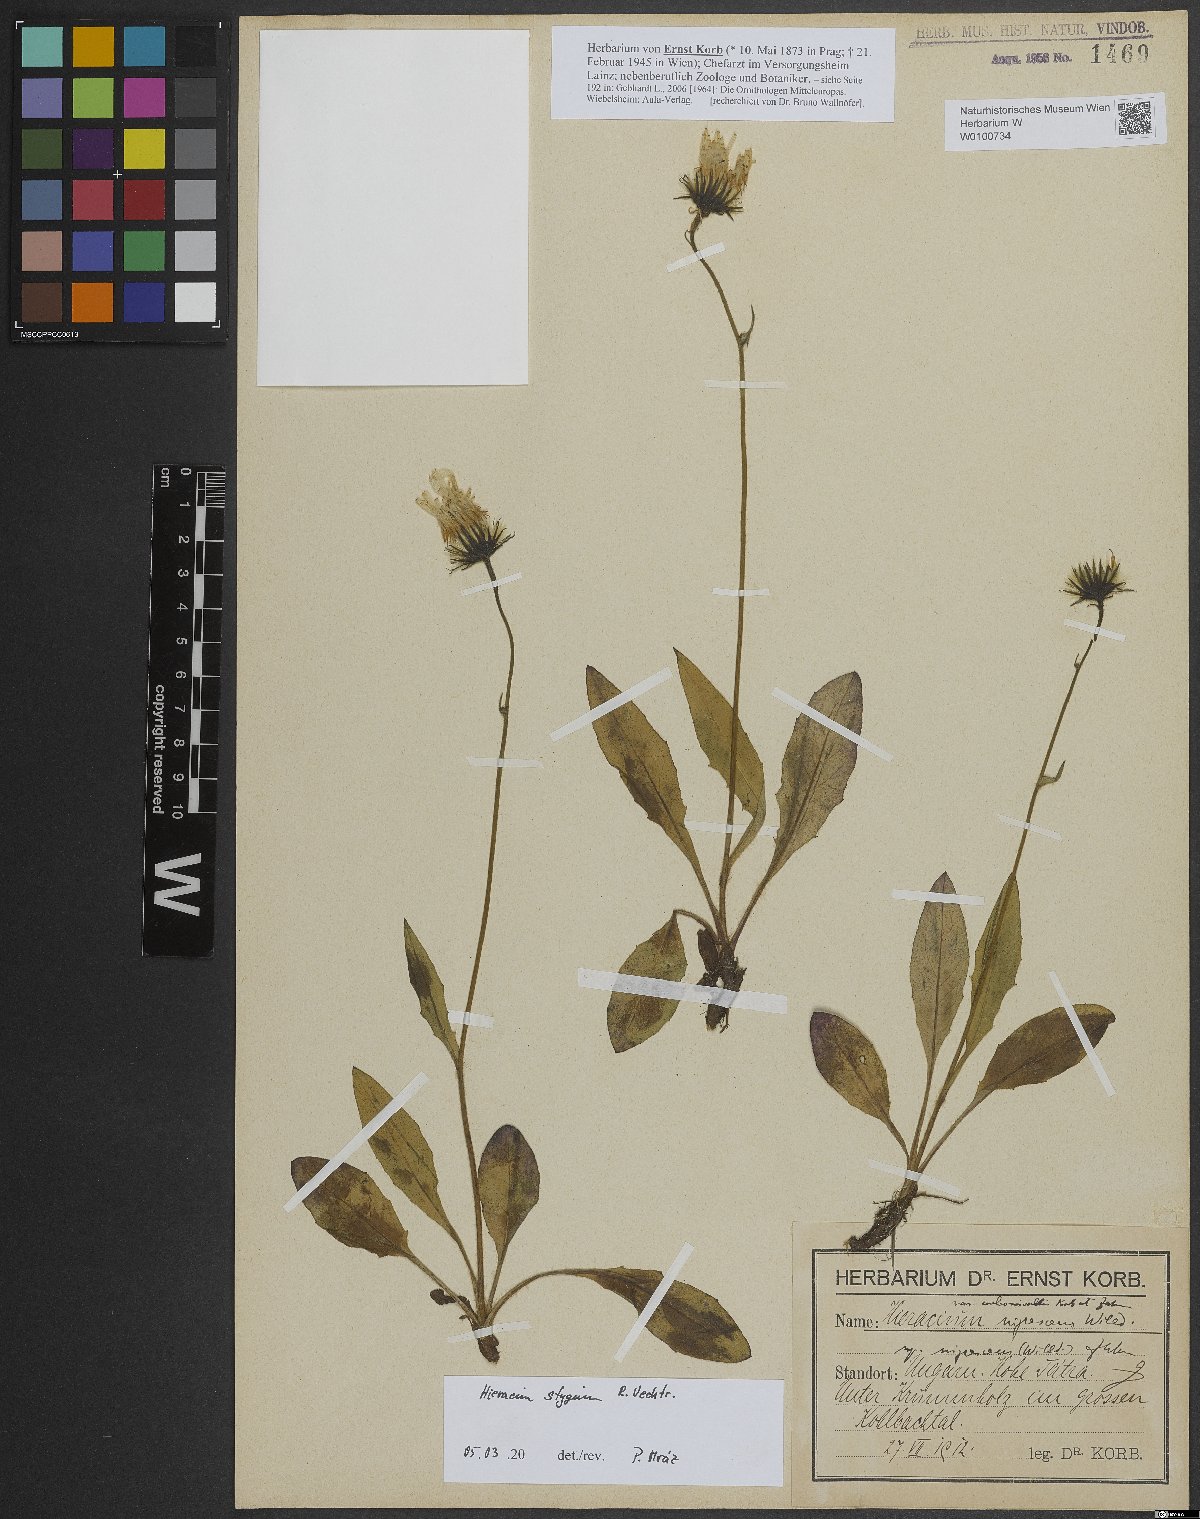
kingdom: Plantae
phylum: Tracheophyta
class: Magnoliopsida
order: Asterales
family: Asteraceae
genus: Hieracium
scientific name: Hieracium chlorocephalum
